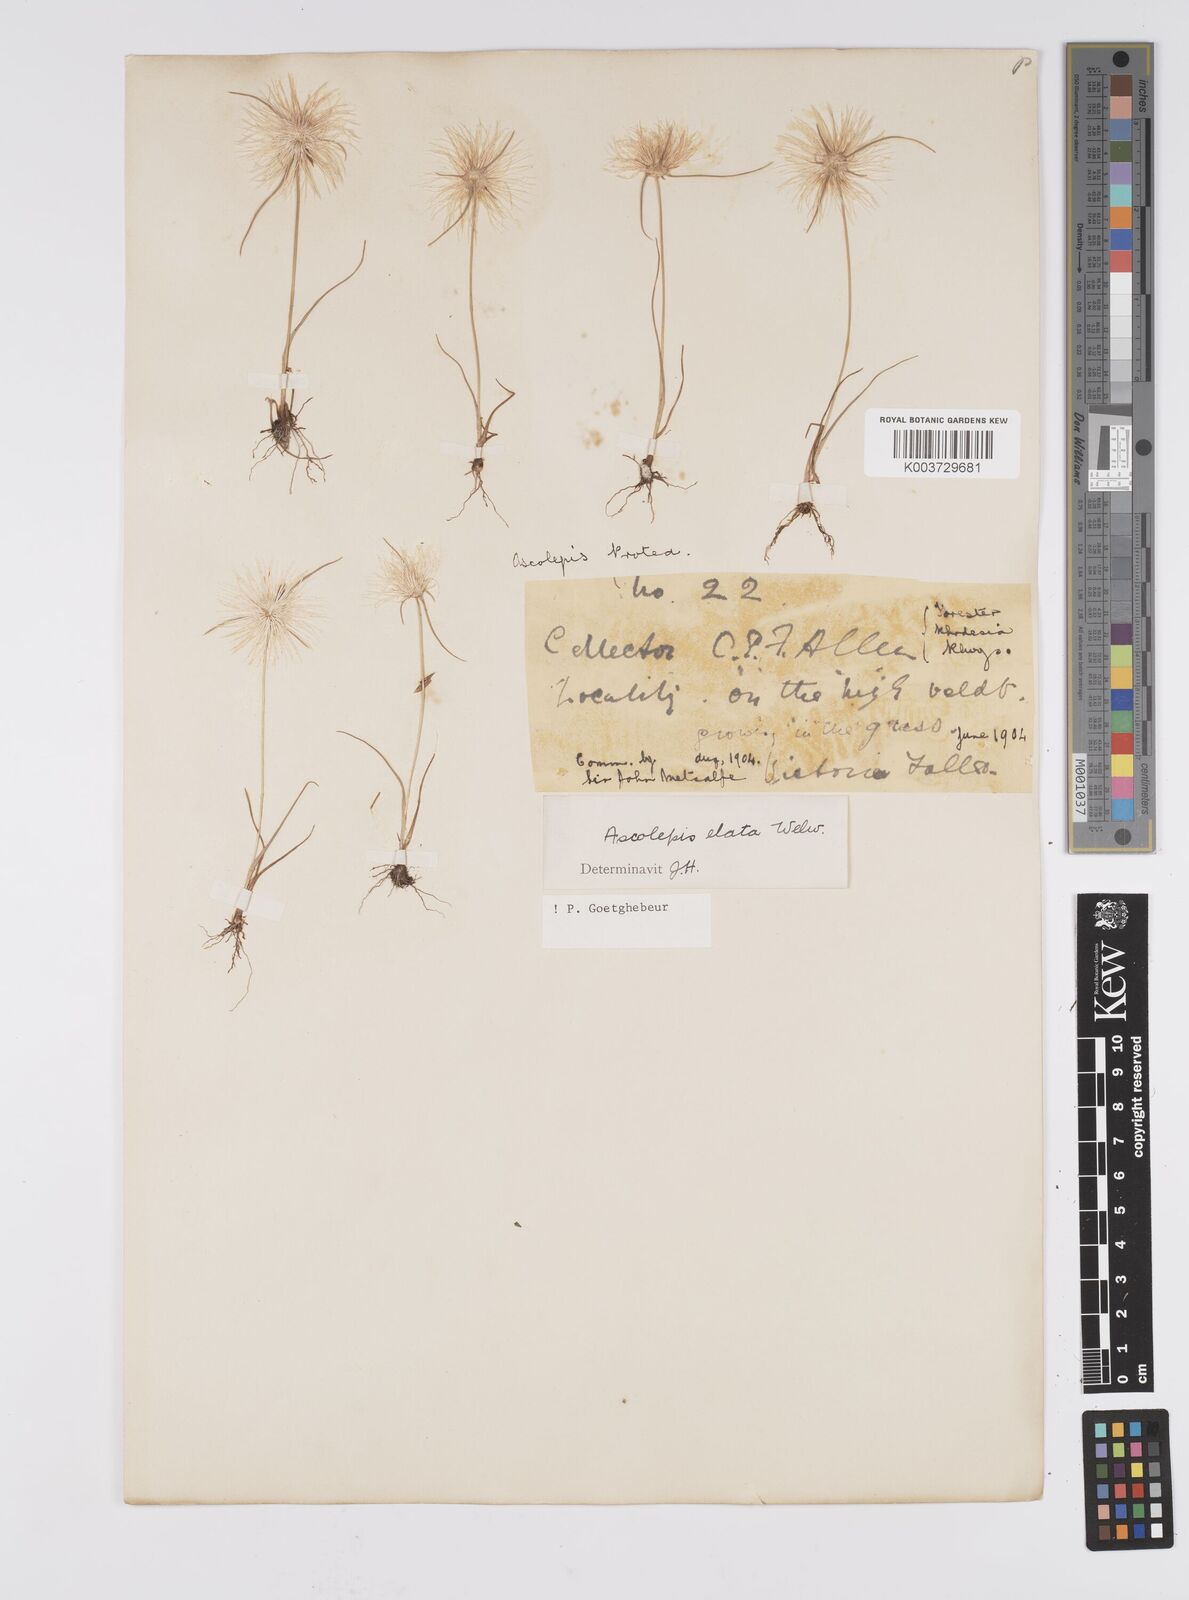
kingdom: Plantae
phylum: Tracheophyta
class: Liliopsida
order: Poales
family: Cyperaceae
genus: Cyperus
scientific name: Cyperus
